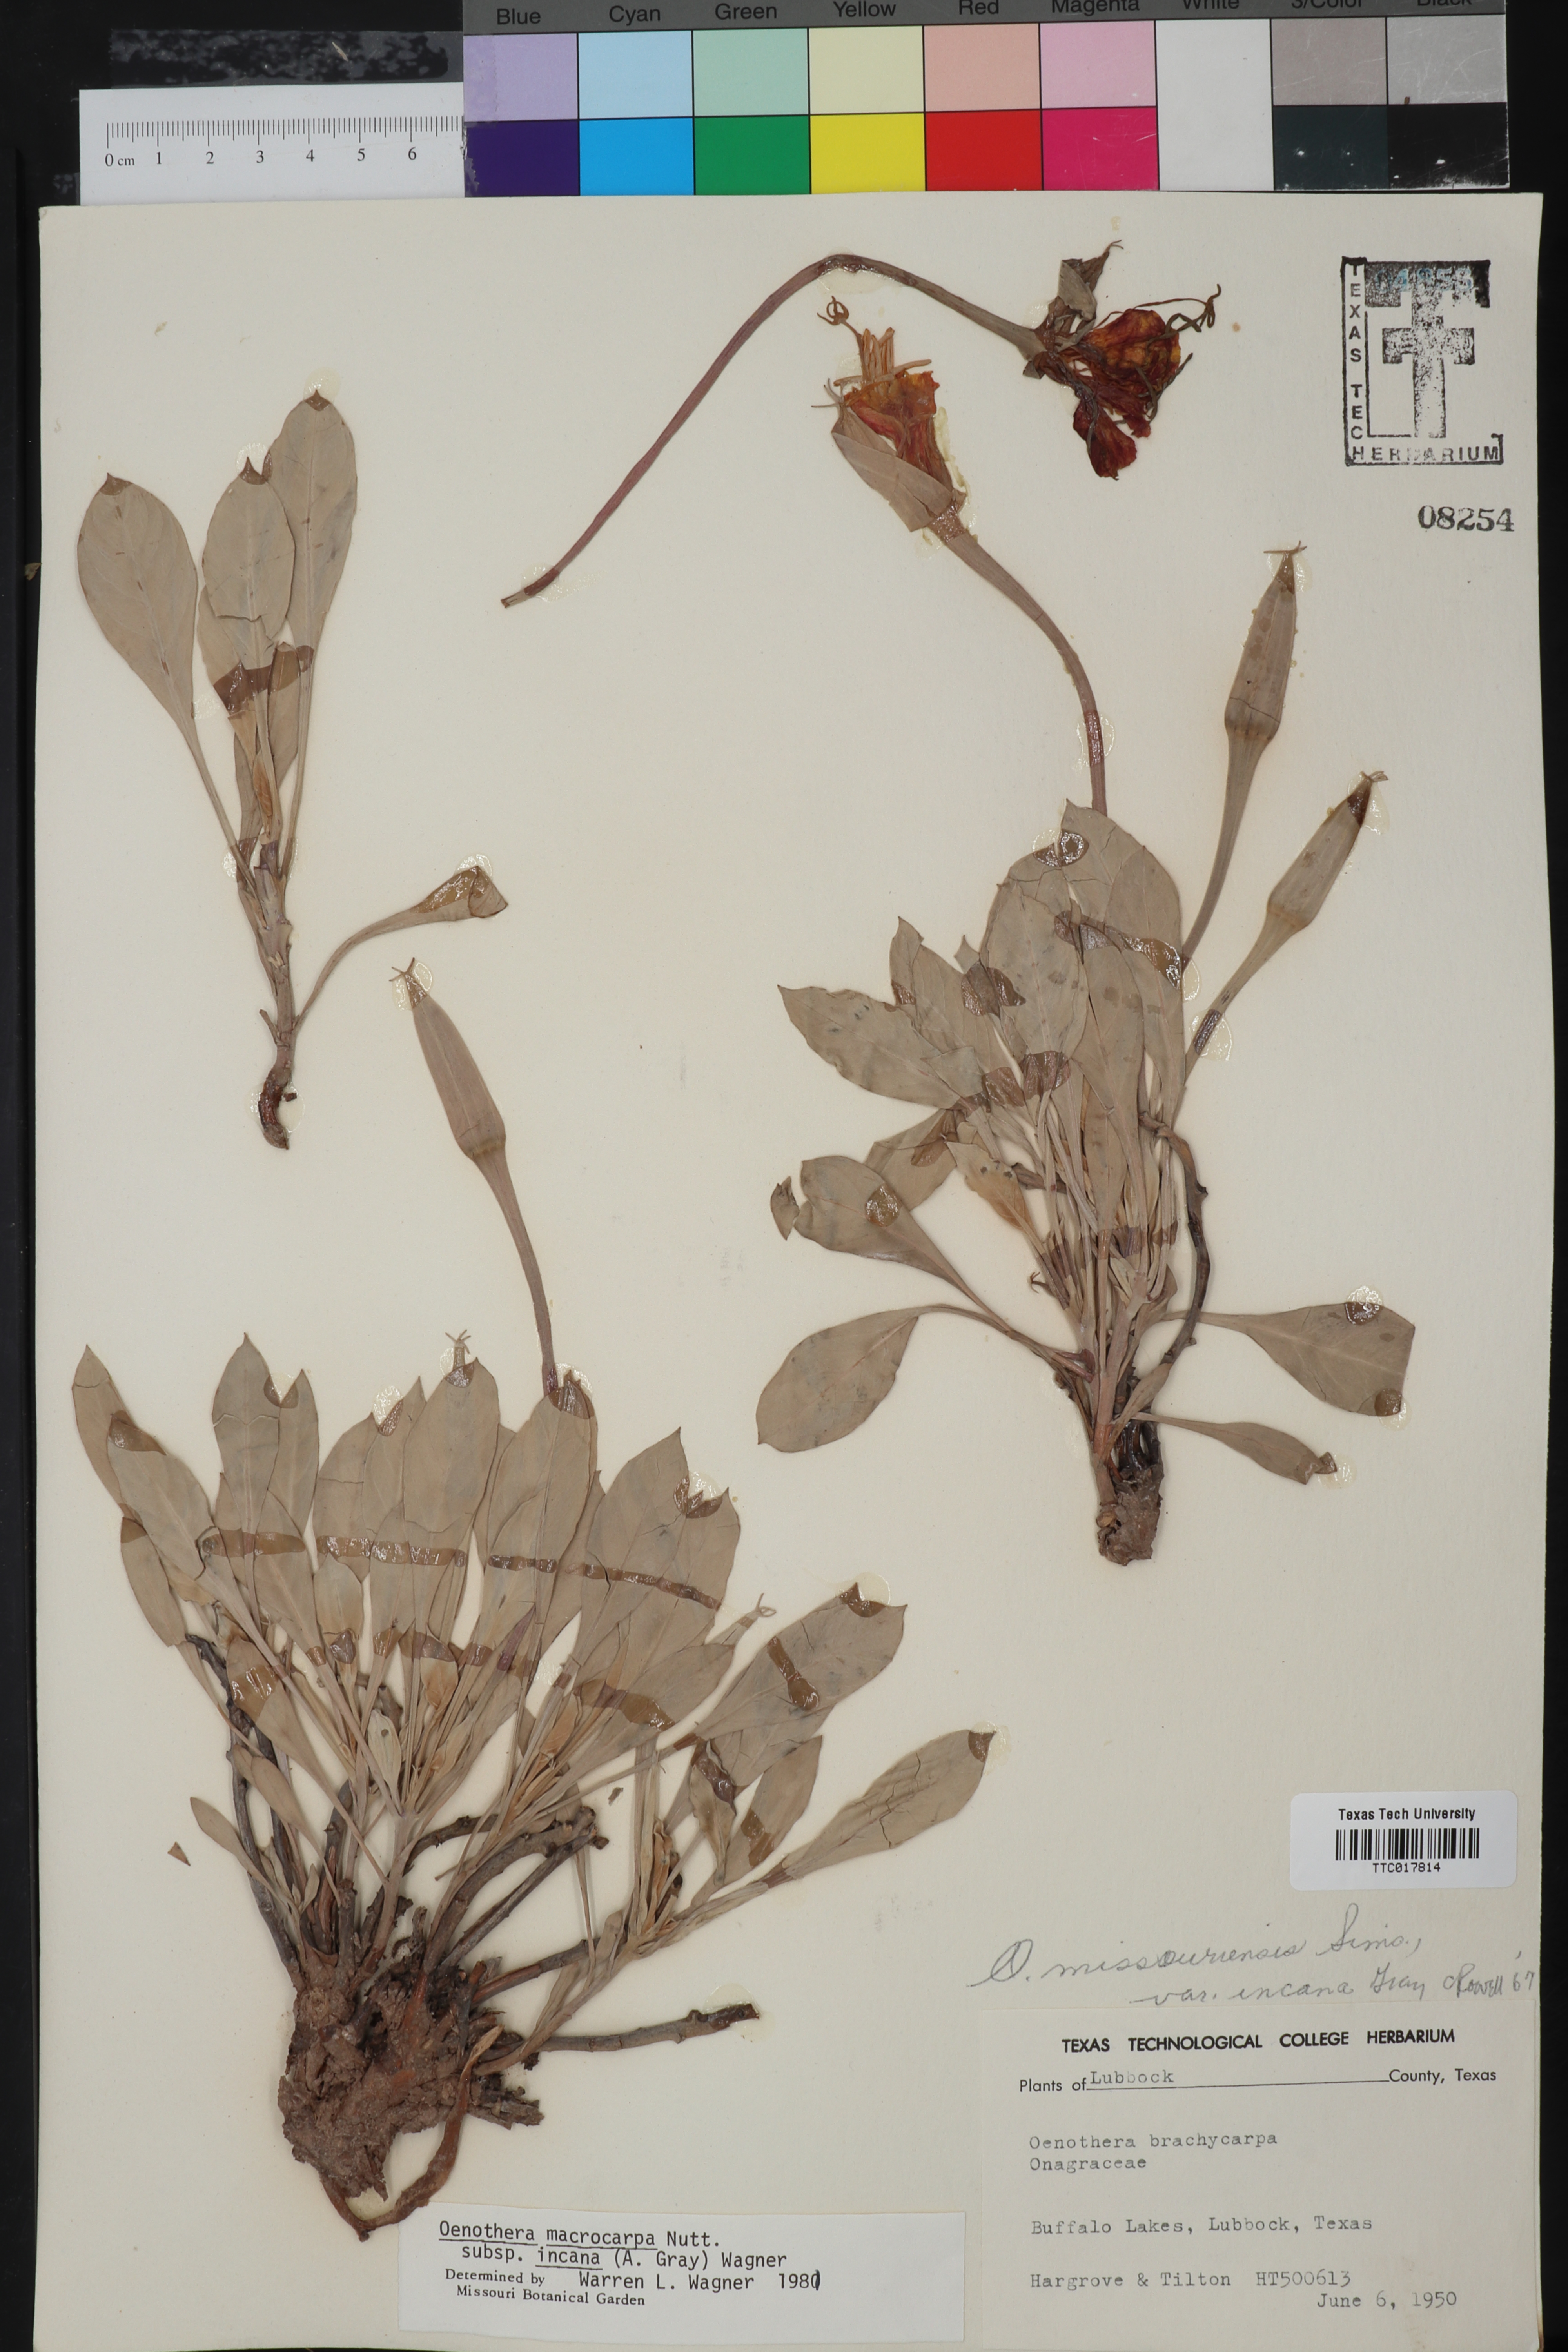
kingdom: Plantae
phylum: Tracheophyta
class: Magnoliopsida
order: Myrtales
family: Onagraceae
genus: Oenothera
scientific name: Oenothera macrocarpa
